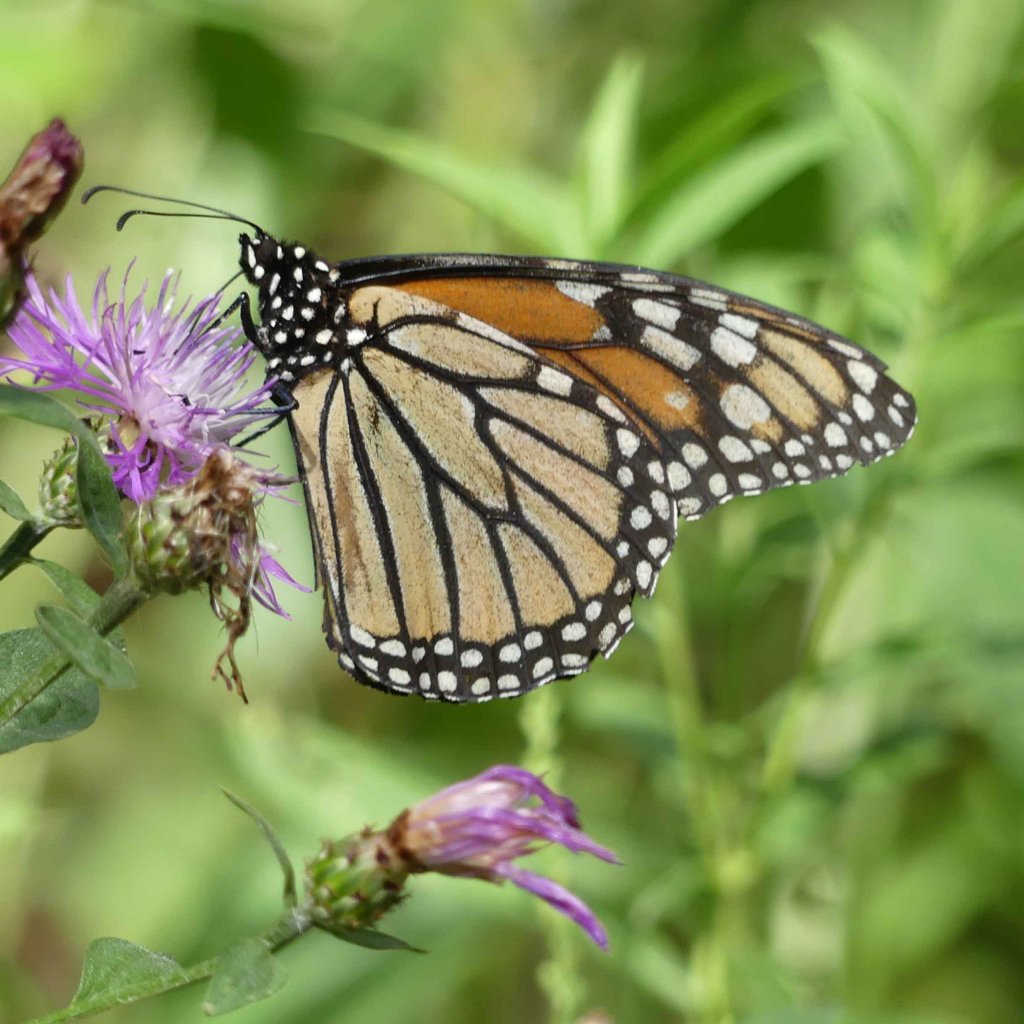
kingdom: Animalia
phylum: Arthropoda
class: Insecta
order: Lepidoptera
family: Nymphalidae
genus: Danaus
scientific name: Danaus plexippus
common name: Monarch
